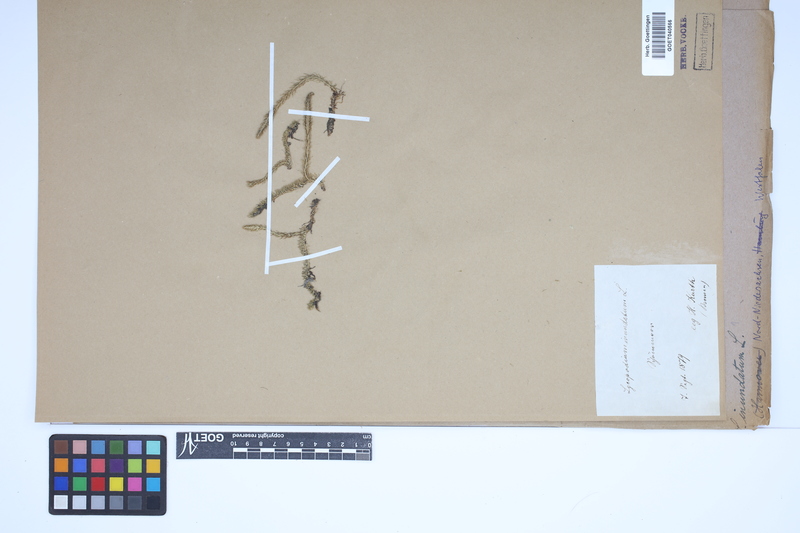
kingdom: Plantae
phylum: Tracheophyta
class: Lycopodiopsida
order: Lycopodiales
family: Lycopodiaceae
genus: Lycopodiella
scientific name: Lycopodiella inundata
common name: Marsh clubmoss
